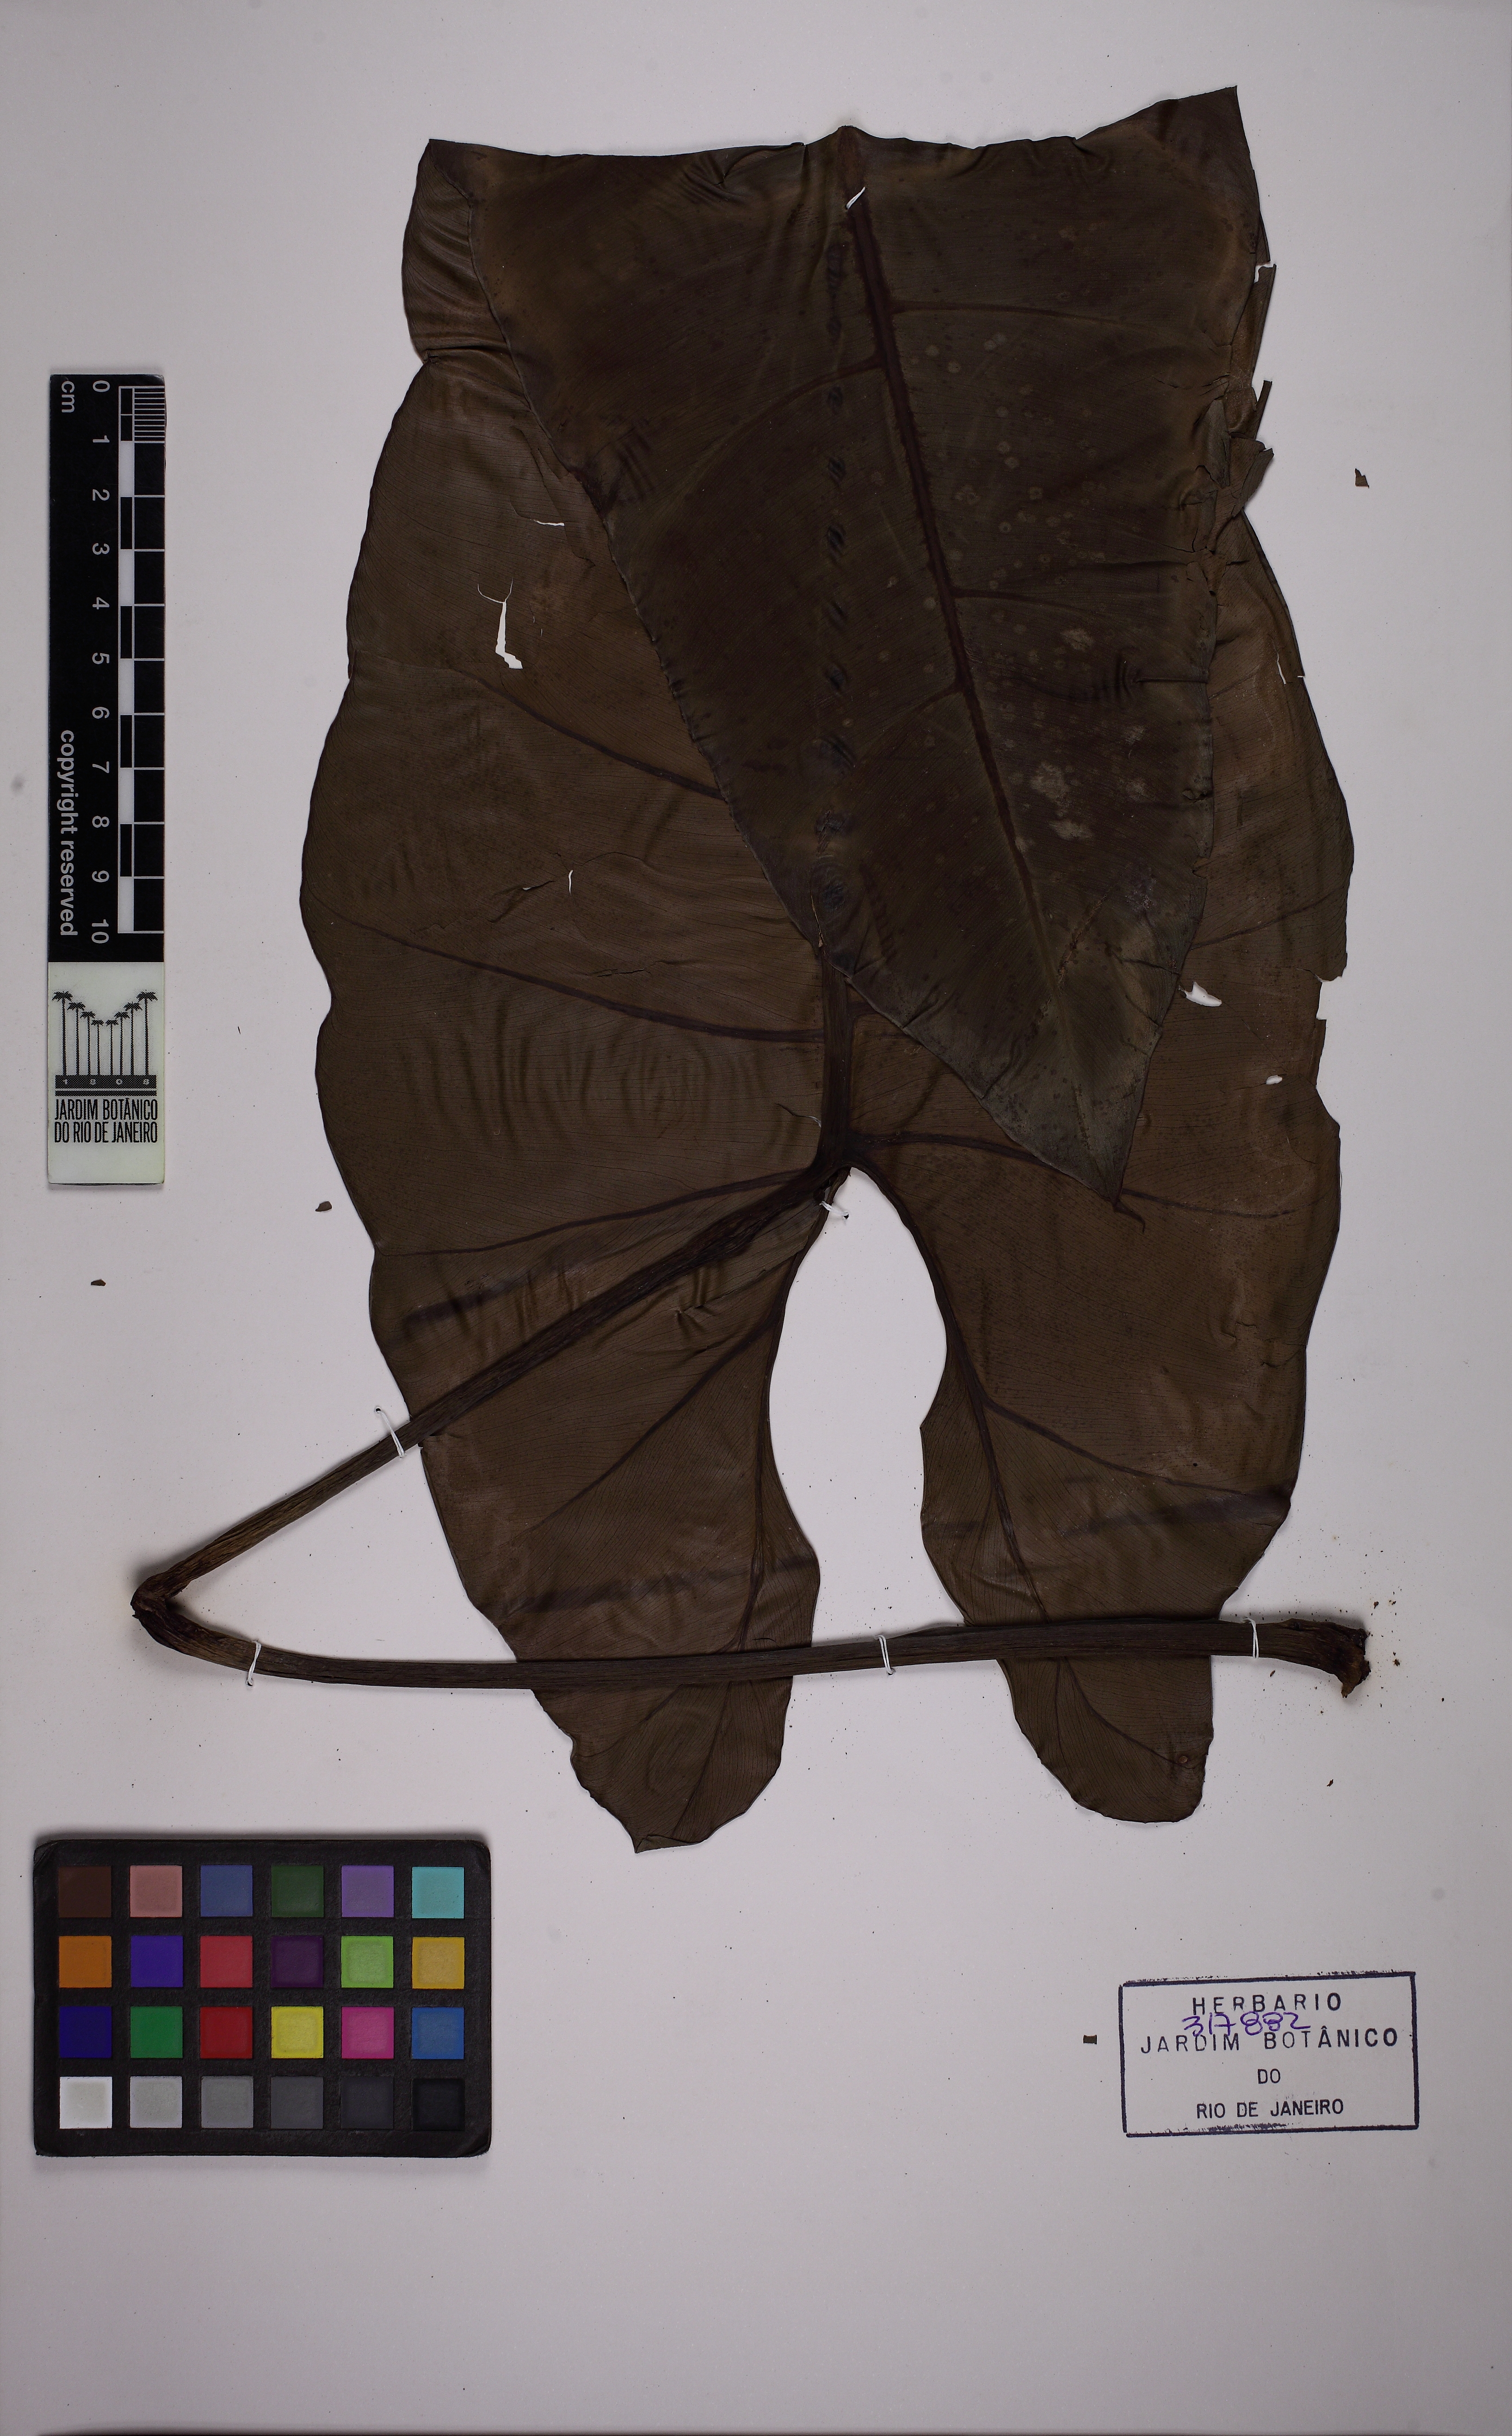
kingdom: Plantae
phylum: Tracheophyta
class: Liliopsida
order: Alismatales
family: Araceae
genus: Philodendron
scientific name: Philodendron
